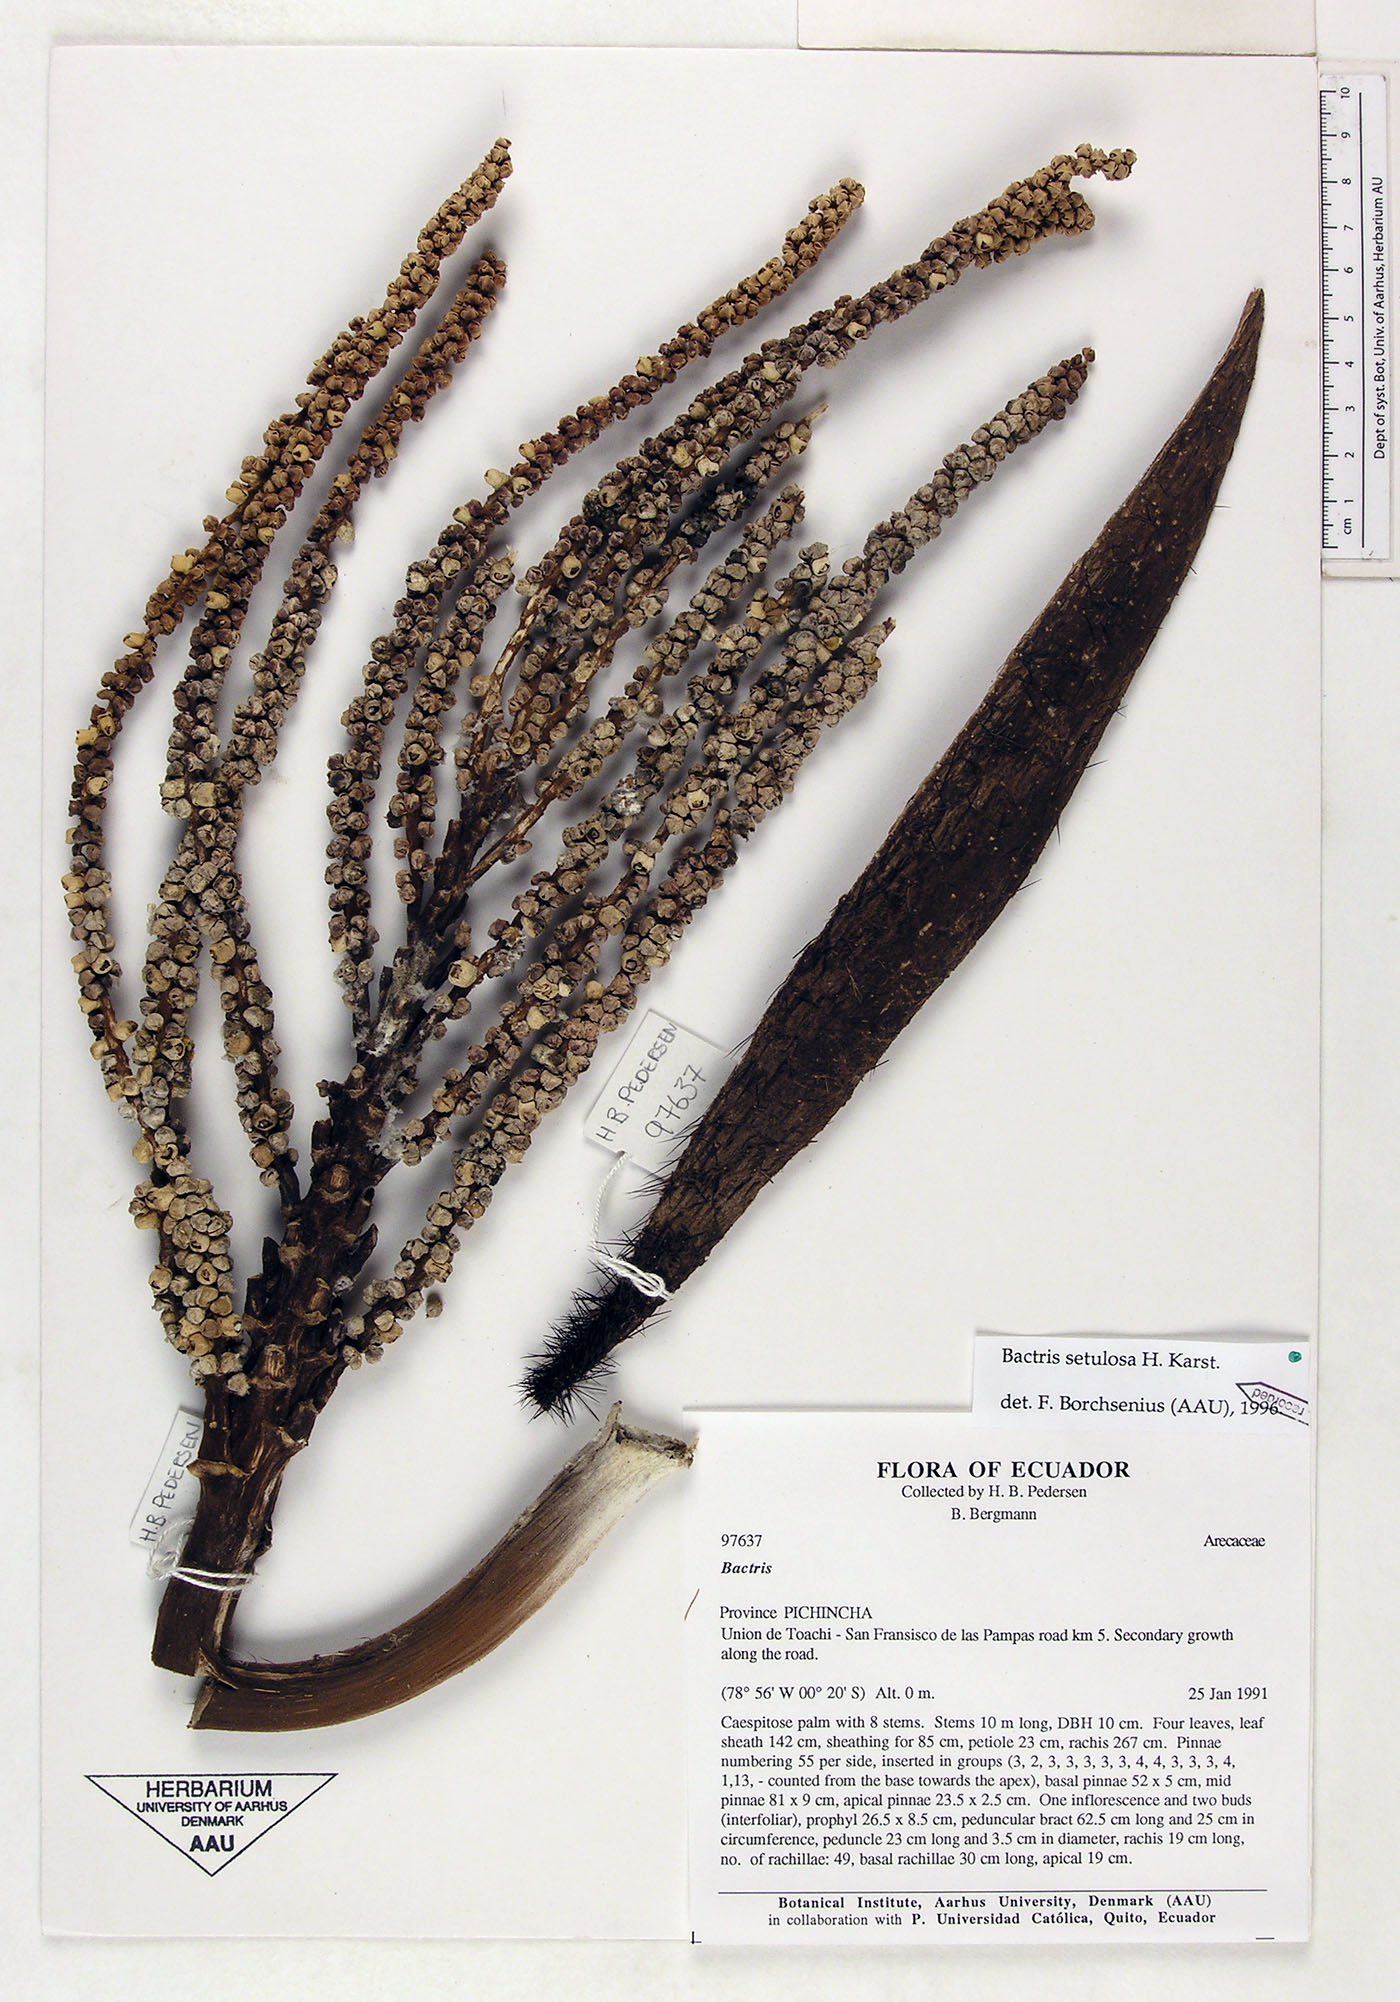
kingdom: Plantae
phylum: Tracheophyta
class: Liliopsida
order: Arecales
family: Arecaceae
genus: Bactris
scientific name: Bactris setulosa
